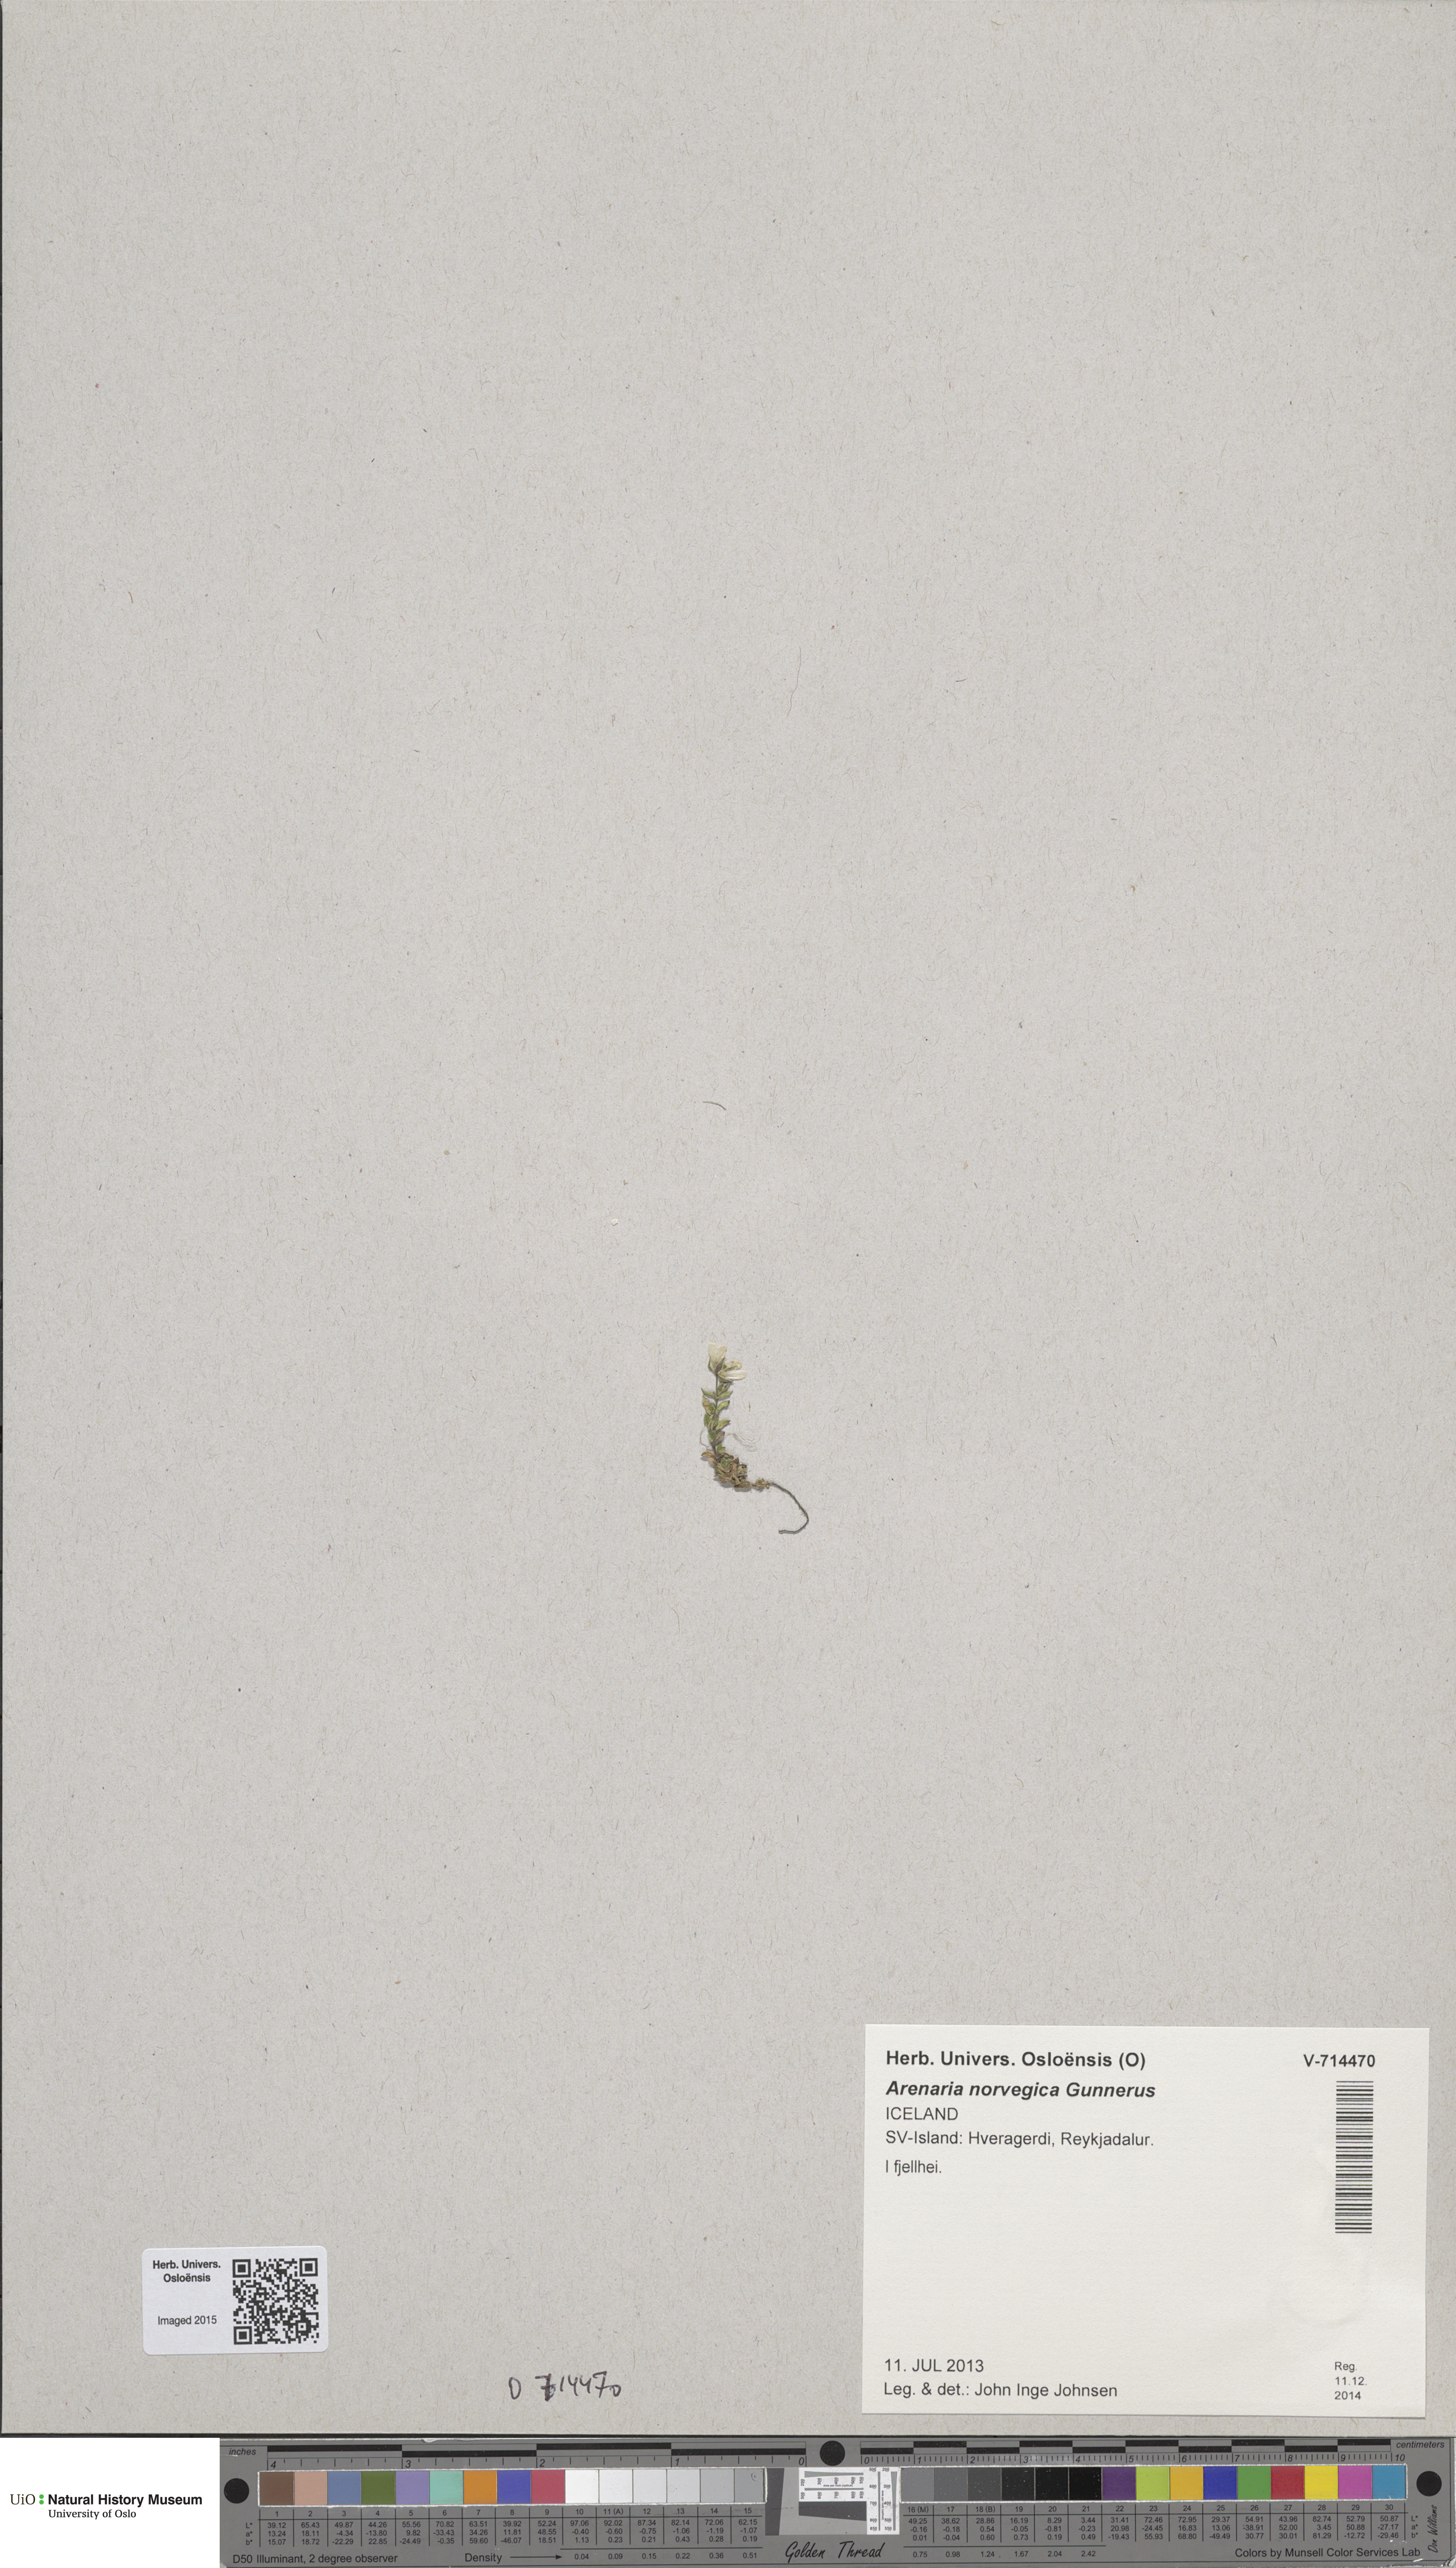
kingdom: Plantae
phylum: Tracheophyta
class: Magnoliopsida
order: Caryophyllales
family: Caryophyllaceae
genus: Arenaria
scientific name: Arenaria norvegica
